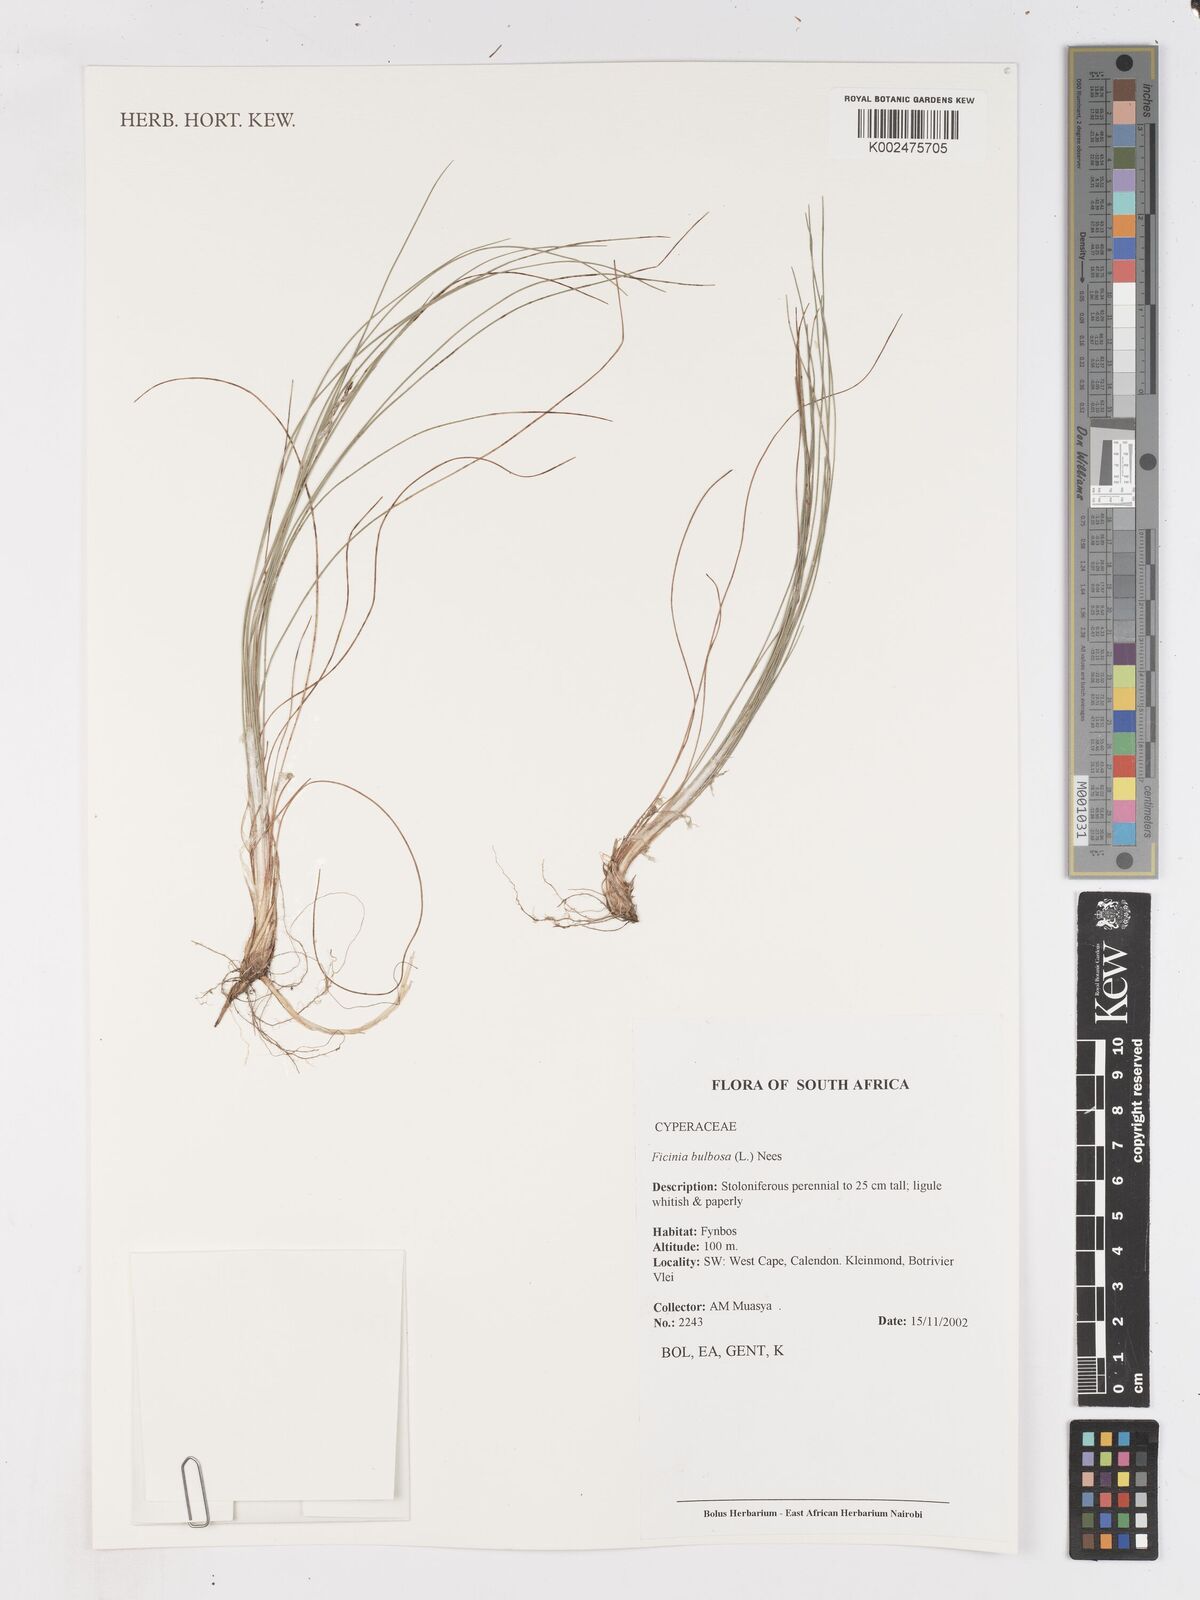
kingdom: Plantae
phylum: Tracheophyta
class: Liliopsida
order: Poales
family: Cyperaceae
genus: Ficinia
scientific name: Ficinia bulbosa
